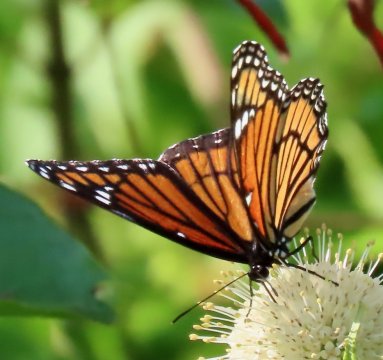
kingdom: Animalia
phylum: Arthropoda
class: Insecta
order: Lepidoptera
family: Nymphalidae
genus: Limenitis
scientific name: Limenitis archippus
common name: Viceroy
